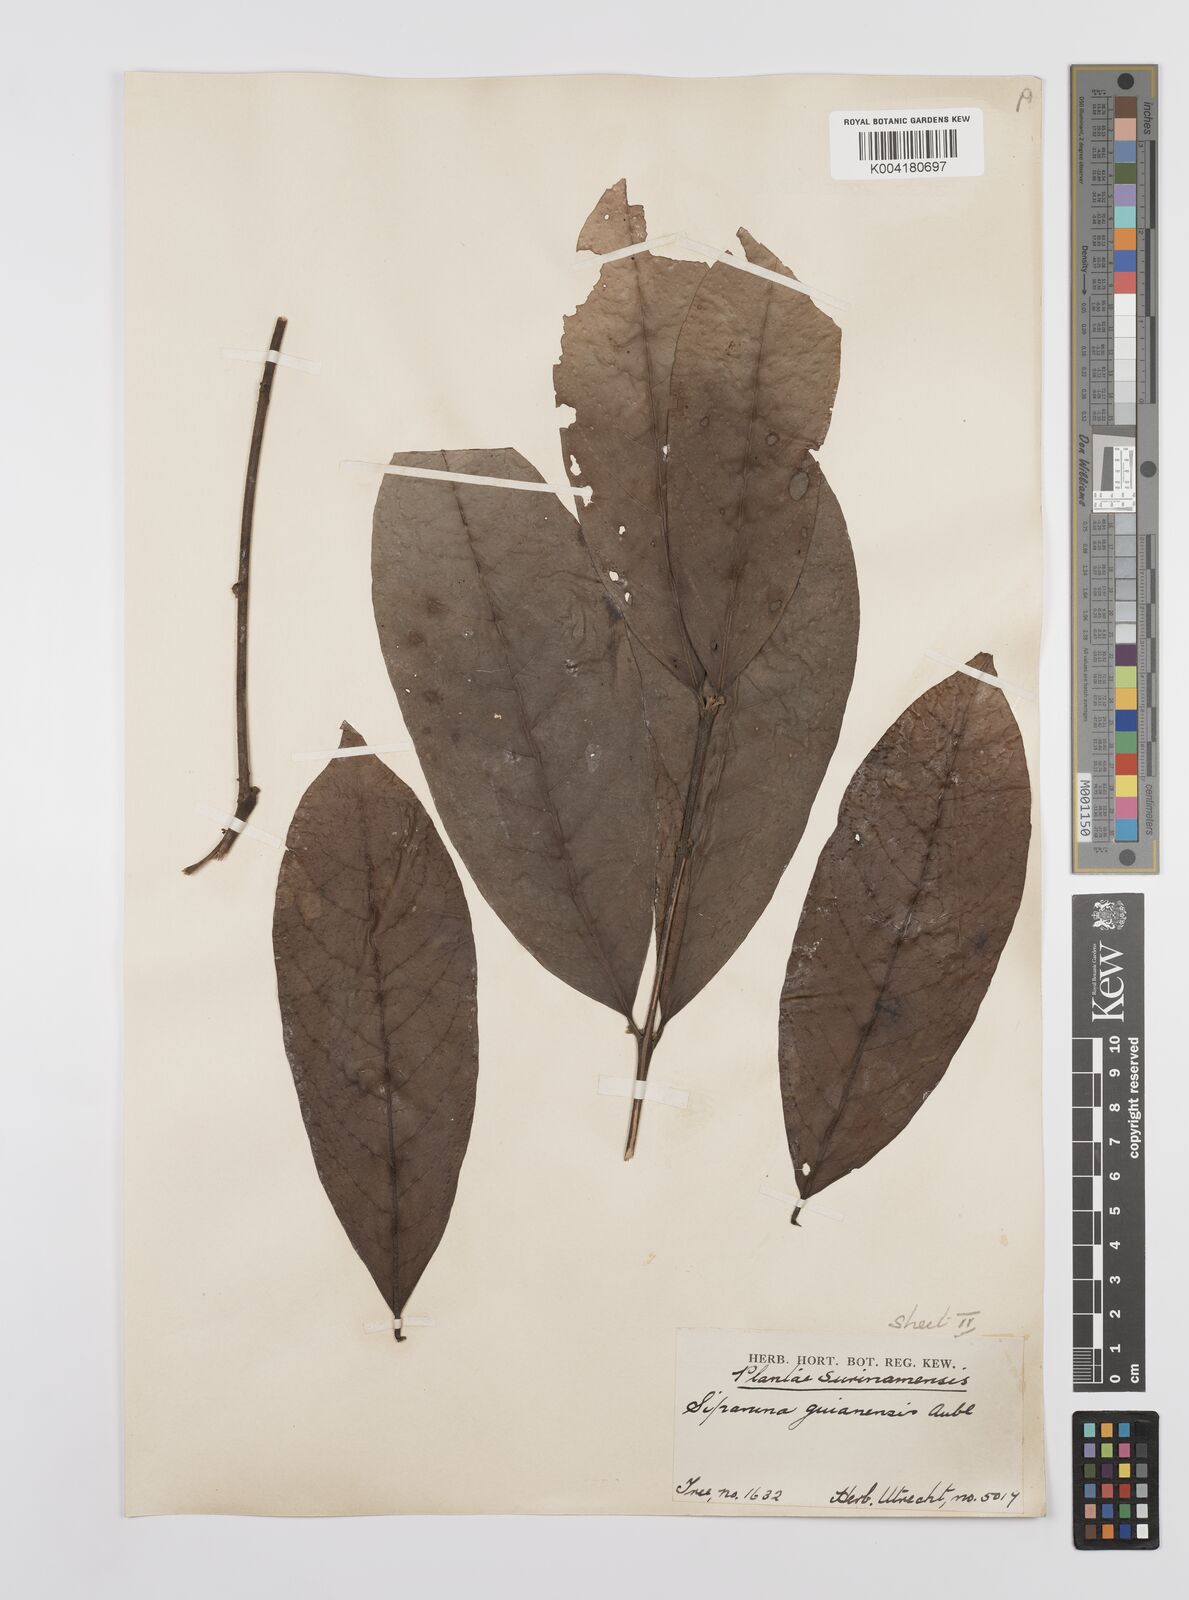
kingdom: Plantae
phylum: Tracheophyta
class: Magnoliopsida
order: Laurales
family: Siparunaceae
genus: Siparuna
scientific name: Siparuna guianensis
